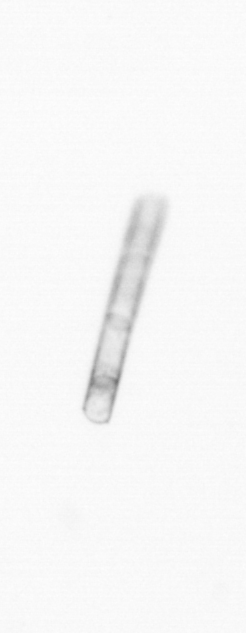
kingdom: Chromista
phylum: Ochrophyta
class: Bacillariophyceae
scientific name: Bacillariophyceae
